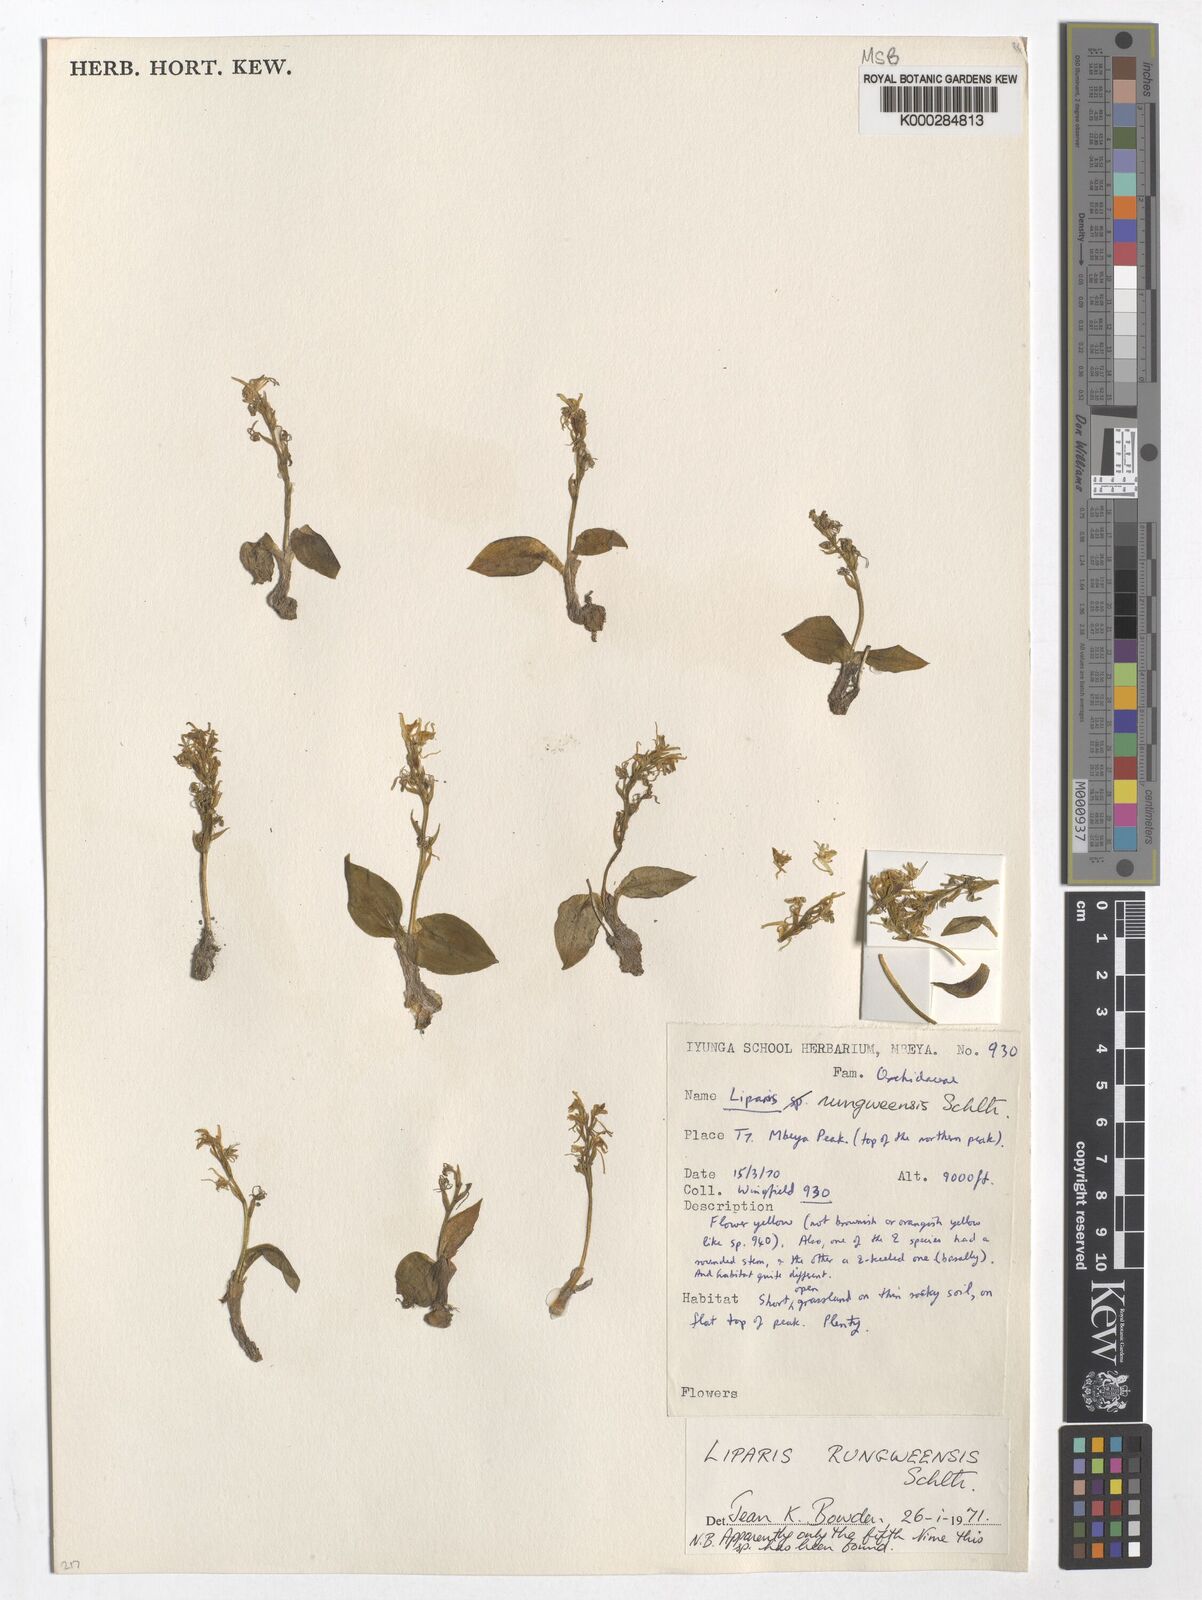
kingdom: Plantae
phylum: Tracheophyta
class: Liliopsida
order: Asparagales
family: Orchidaceae
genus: Liparis
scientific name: Liparis rungweensis
